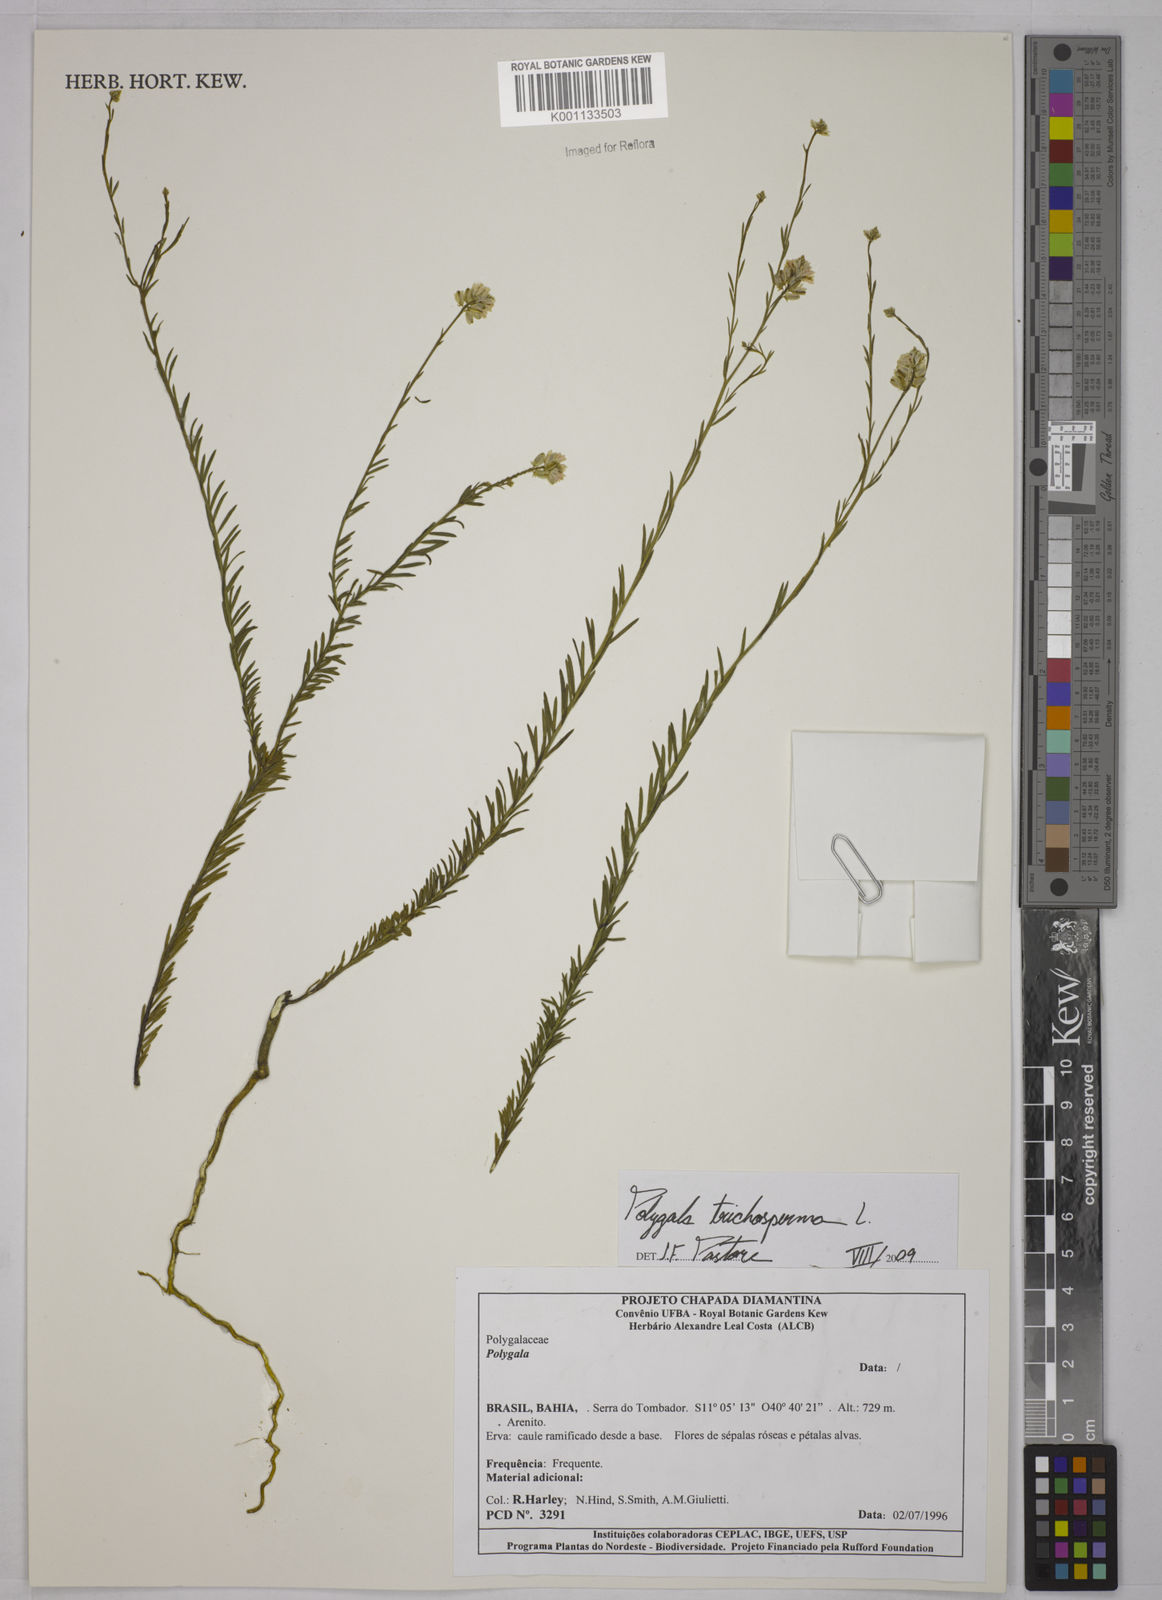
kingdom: Plantae
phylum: Tracheophyta
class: Magnoliopsida
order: Fabales
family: Polygalaceae
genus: Polygala
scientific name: Polygala trichosperma
